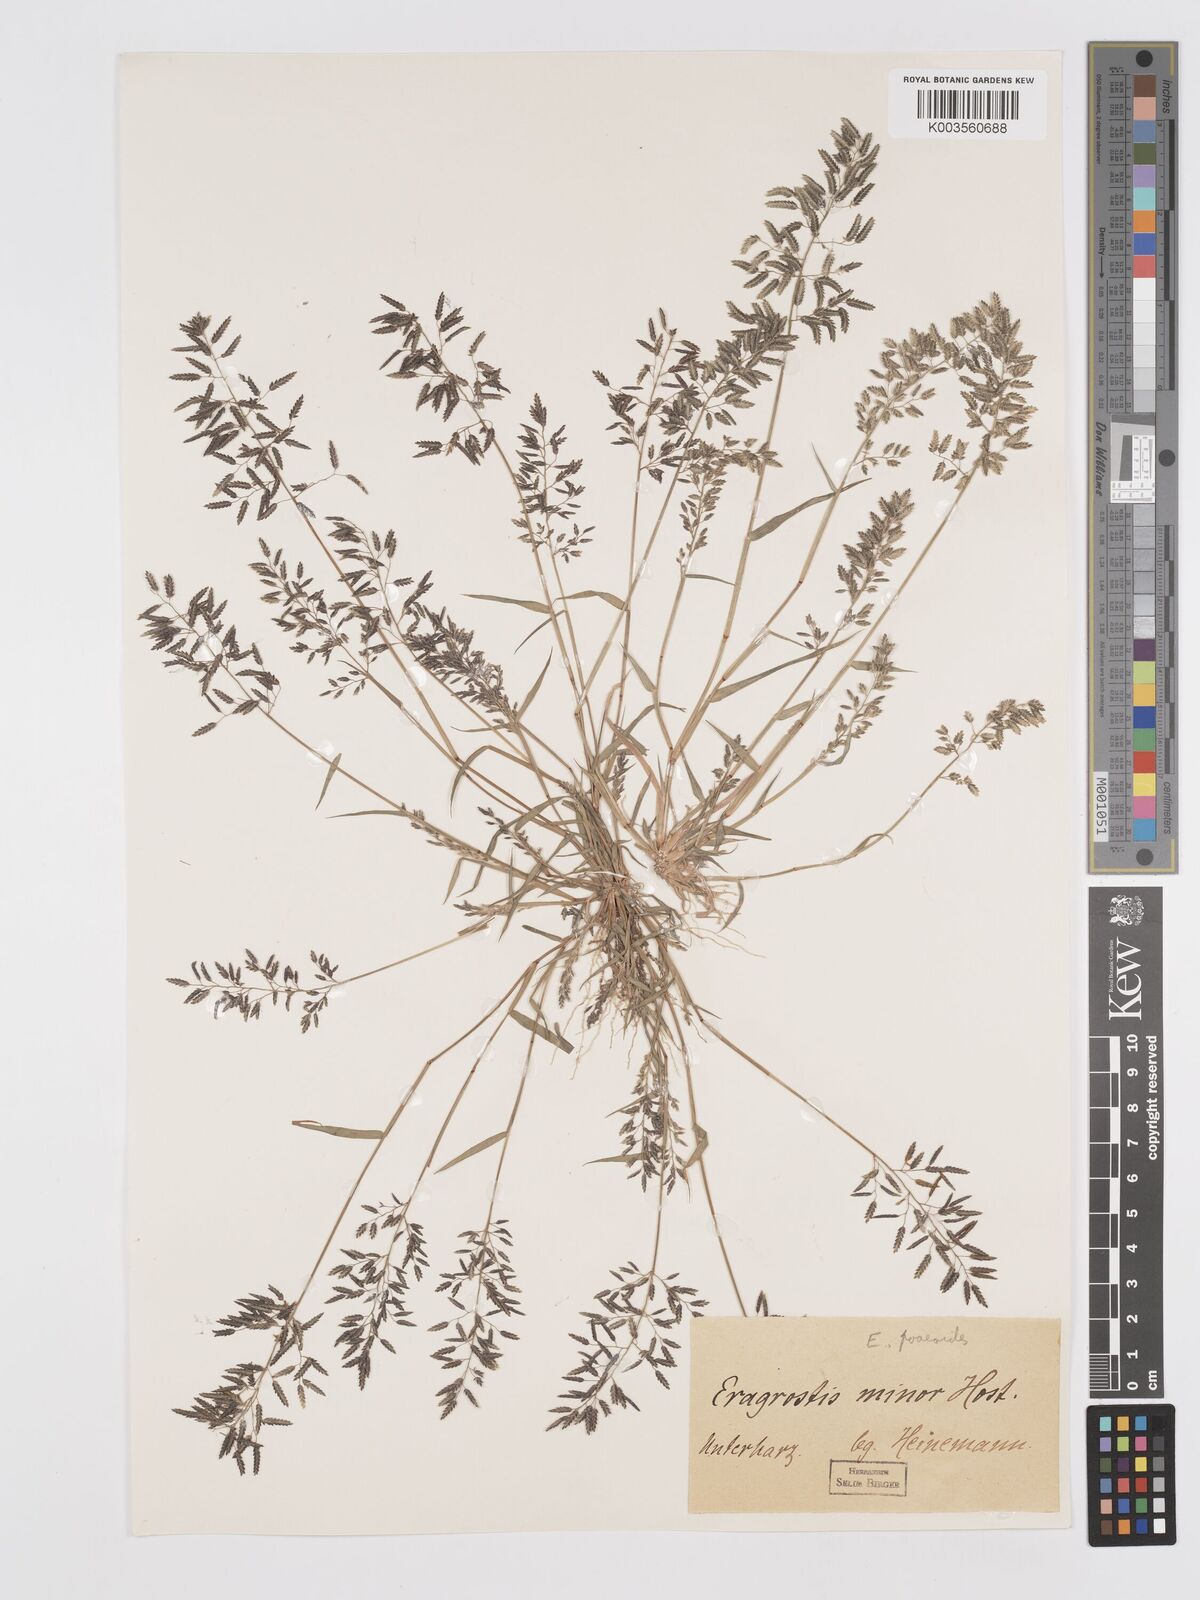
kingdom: Plantae
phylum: Tracheophyta
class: Liliopsida
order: Poales
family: Poaceae
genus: Eragrostis
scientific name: Eragrostis minor
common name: Small love-grass
